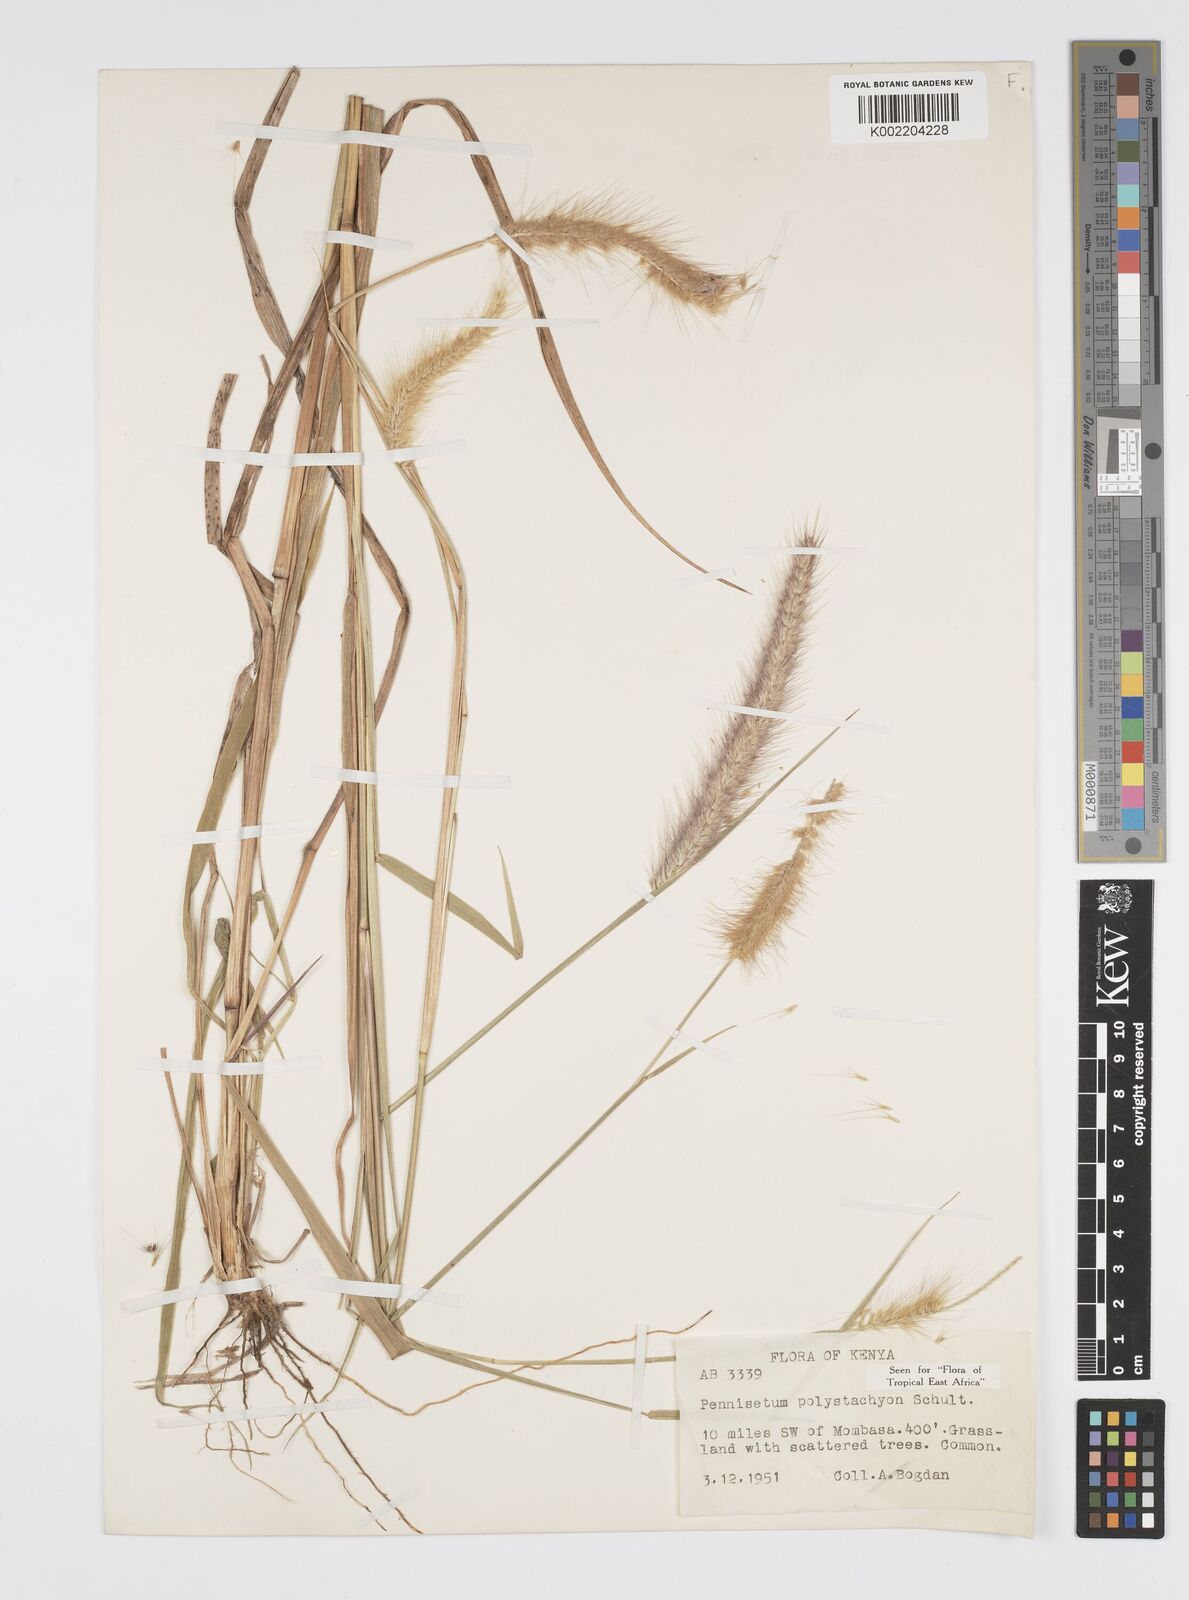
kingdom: Plantae
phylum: Tracheophyta
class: Liliopsida
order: Poales
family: Poaceae
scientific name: Poaceae
